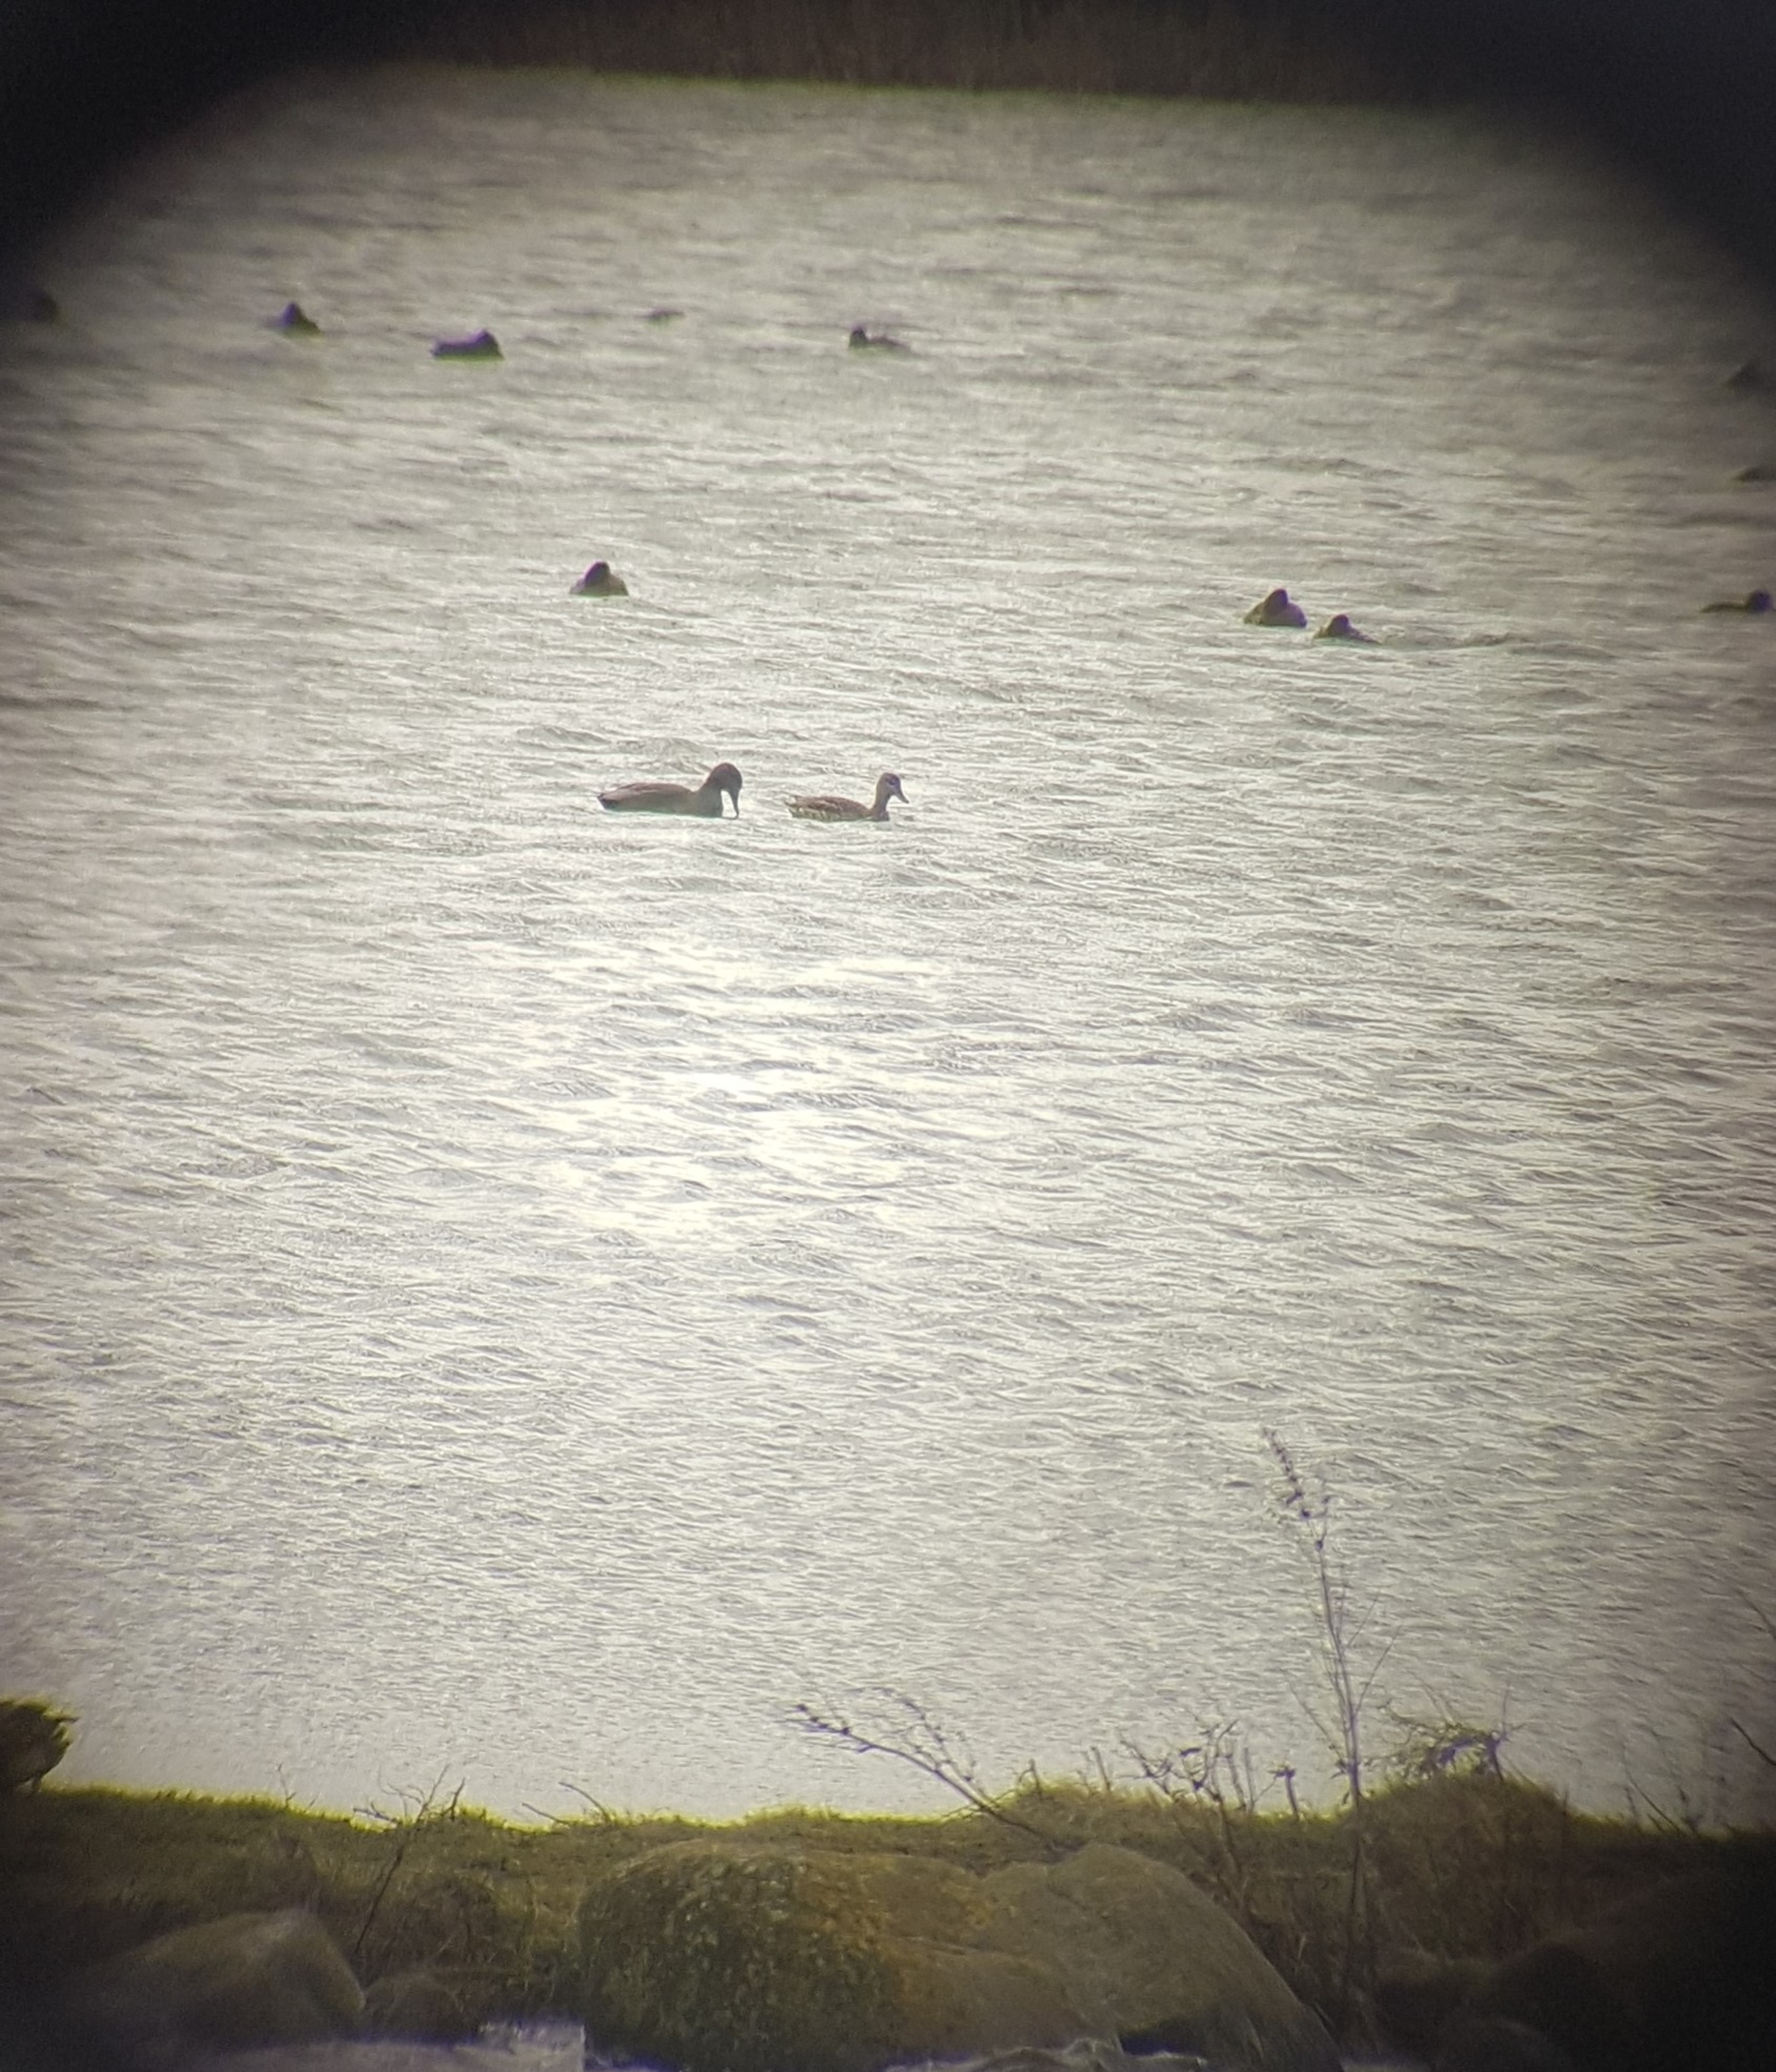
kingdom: Animalia
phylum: Chordata
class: Aves
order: Anseriformes
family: Anatidae
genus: Mareca
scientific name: Mareca strepera
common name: Knarand
